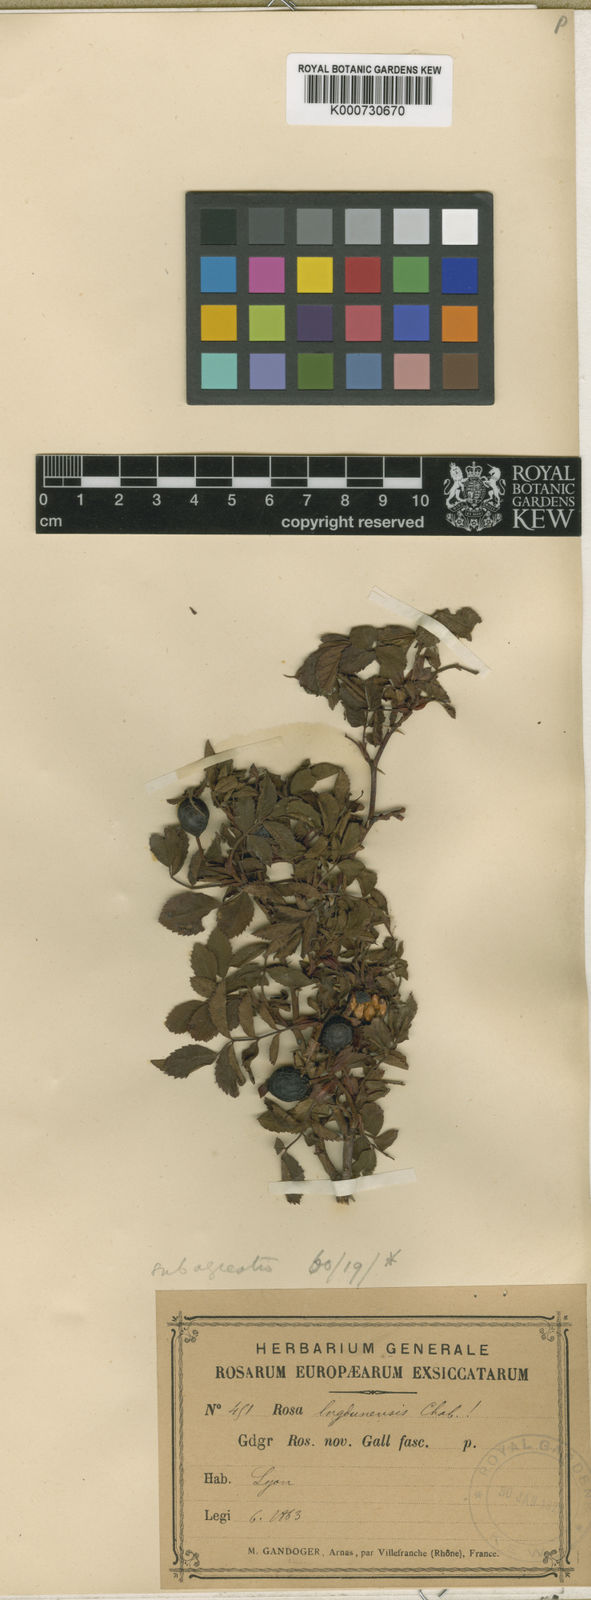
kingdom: Plantae
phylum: Tracheophyta
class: Magnoliopsida
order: Rosales
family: Rosaceae
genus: Rosa
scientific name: Rosa agrestis
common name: Fieldbriar
